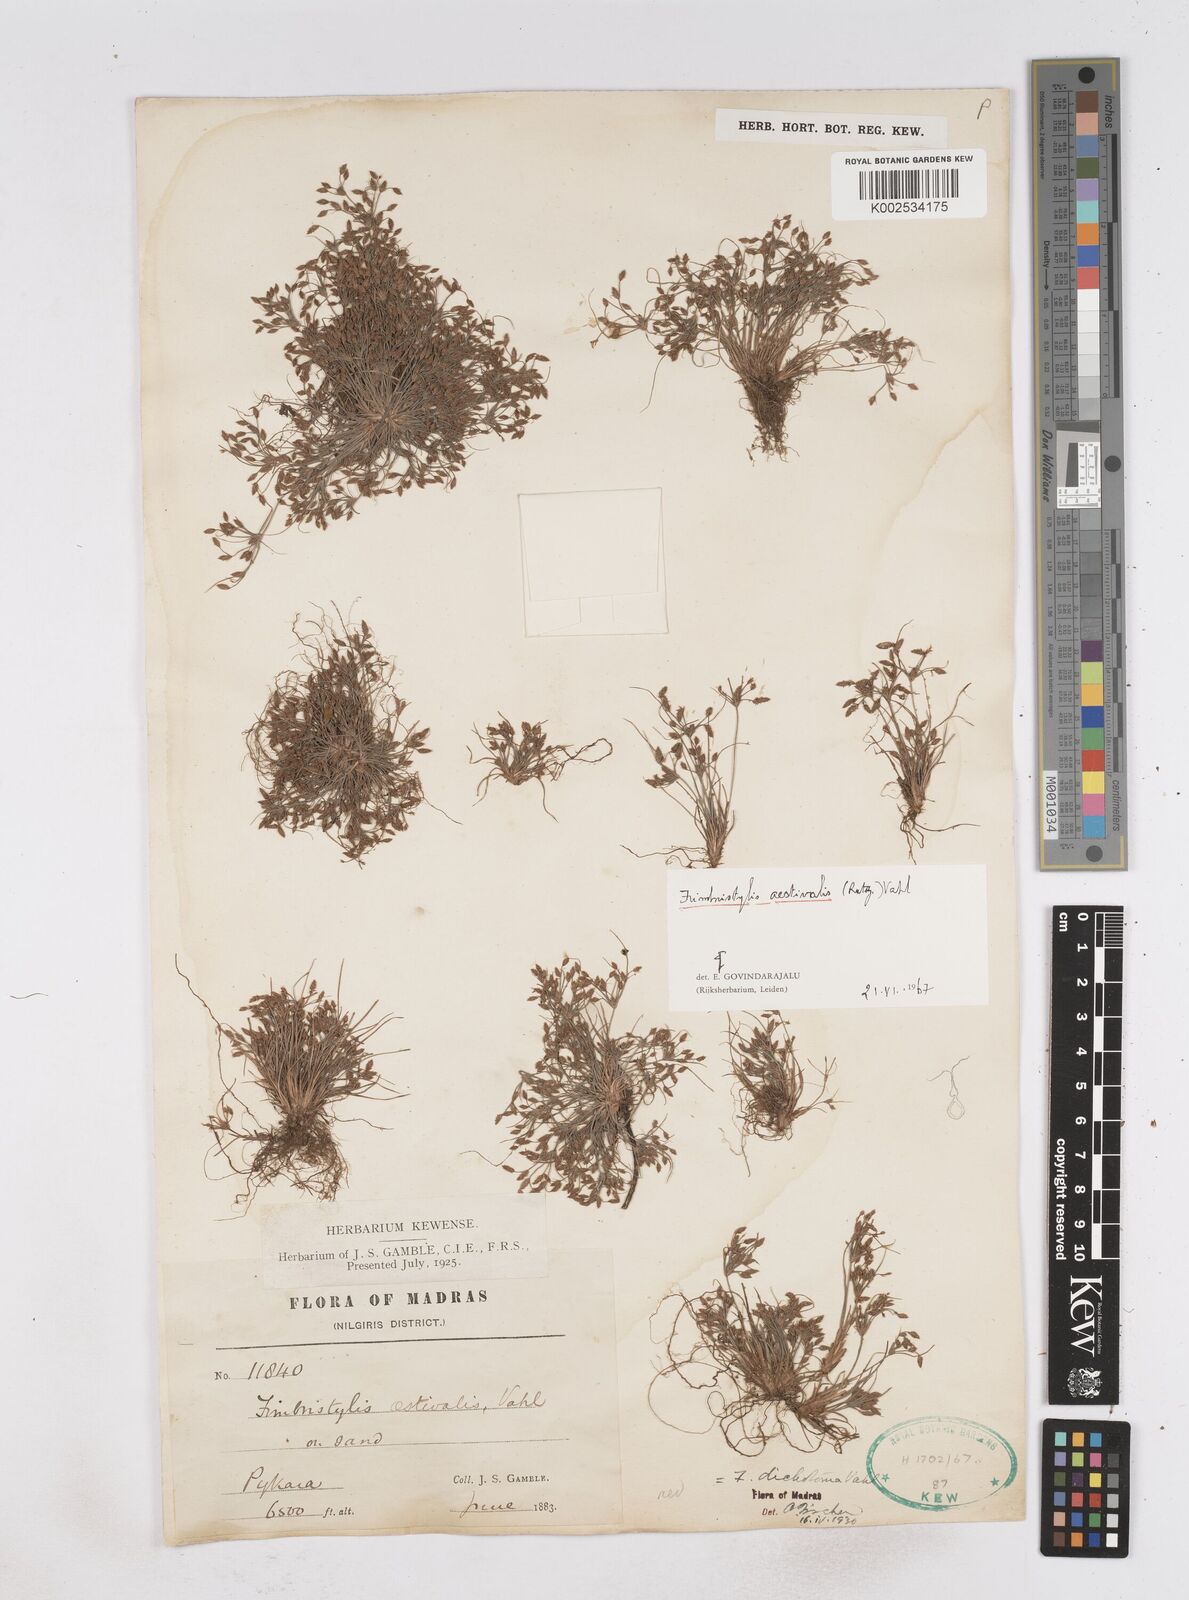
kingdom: Plantae
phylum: Tracheophyta
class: Liliopsida
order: Poales
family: Cyperaceae
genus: Fimbristylis
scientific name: Fimbristylis aestivalis
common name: Summer fimbry
